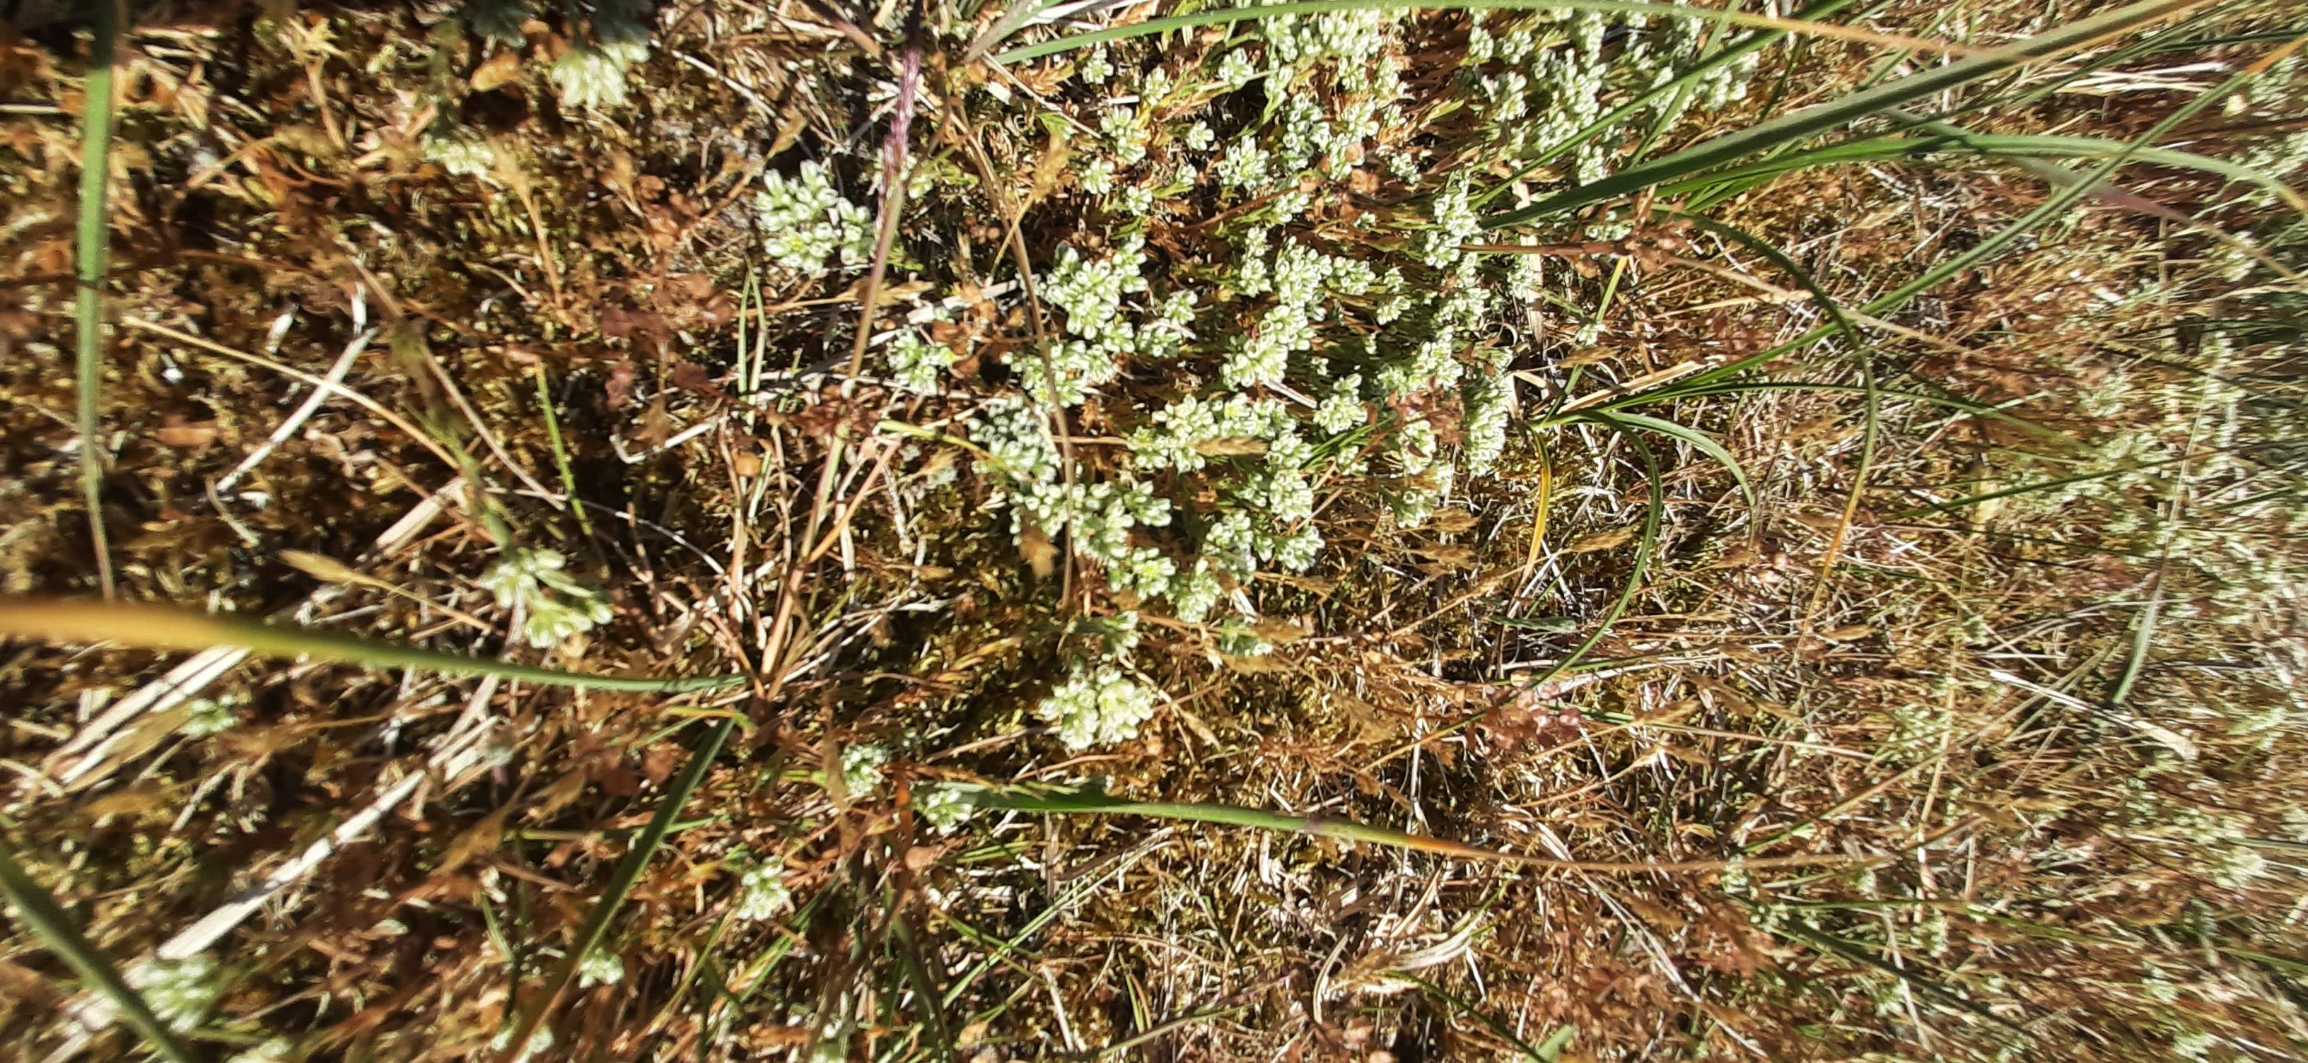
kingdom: Plantae
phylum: Tracheophyta
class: Magnoliopsida
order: Caryophyllales
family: Caryophyllaceae
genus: Scleranthus
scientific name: Scleranthus perennis
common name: Flerårig knavel
